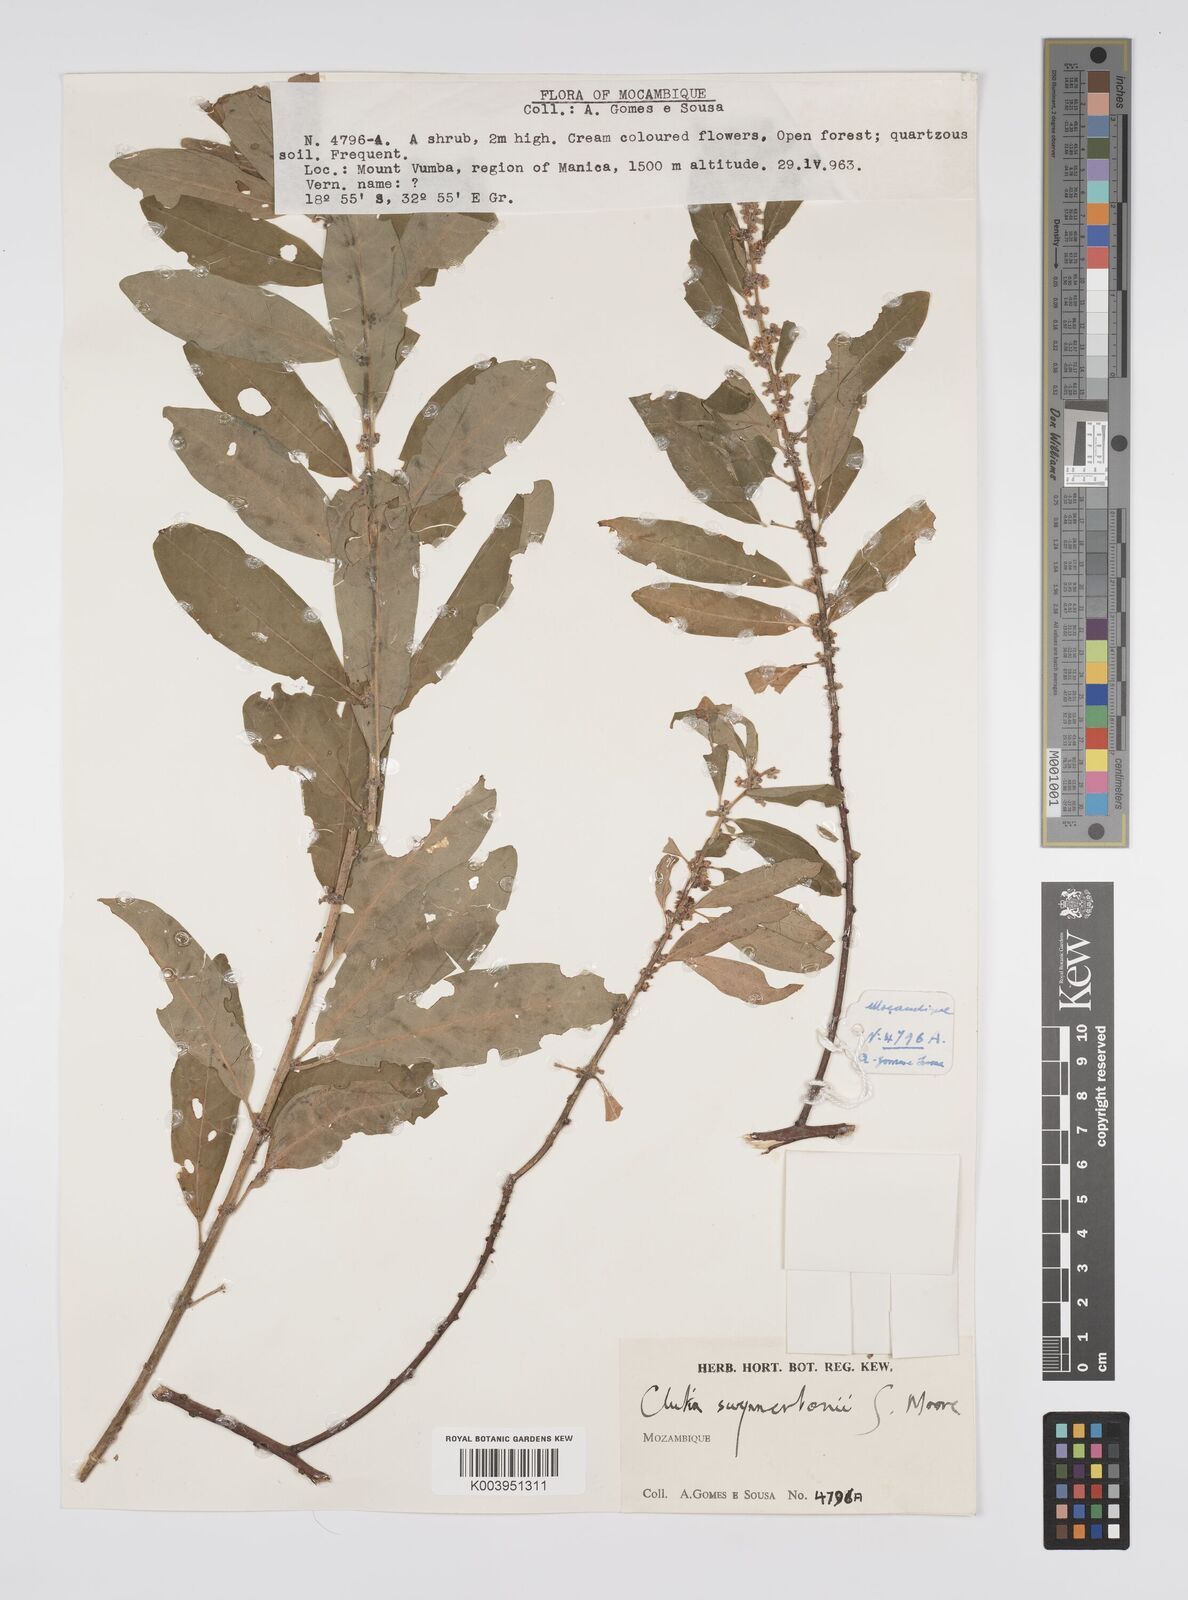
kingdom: Plantae
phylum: Tracheophyta
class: Magnoliopsida
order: Malpighiales
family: Peraceae
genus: Clutia
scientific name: Clutia swynnertonii
